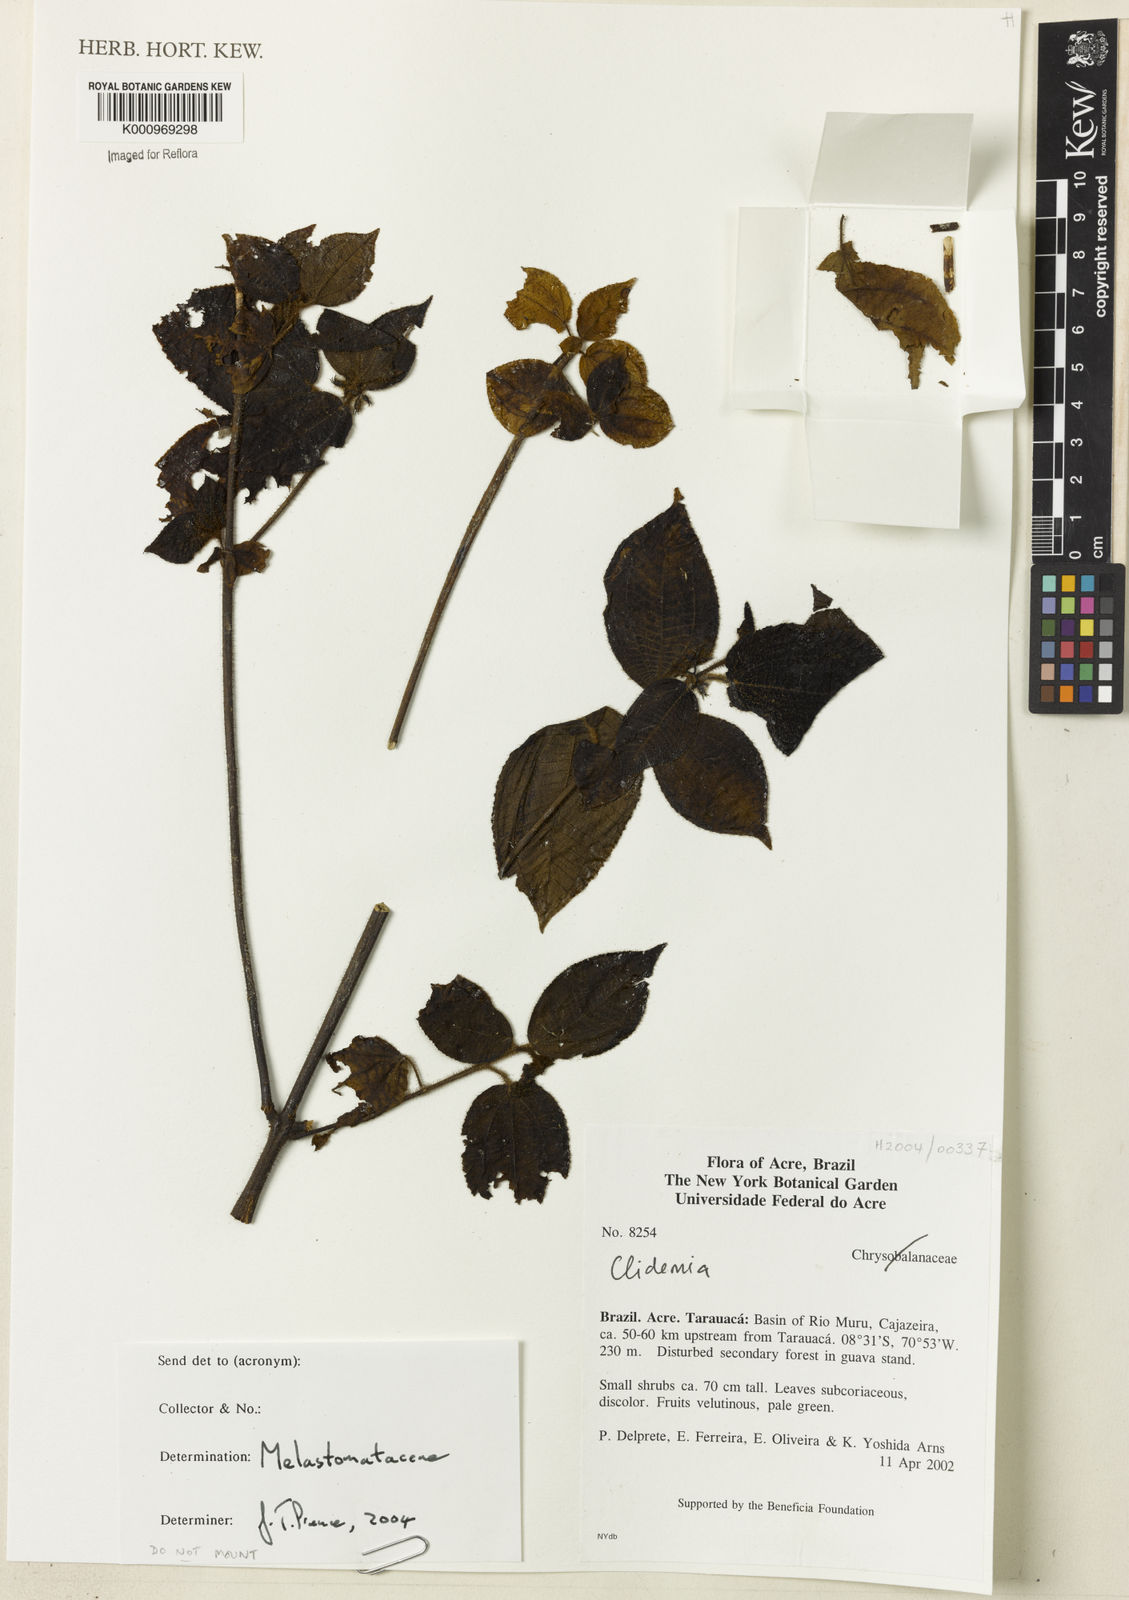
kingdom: Plantae
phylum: Tracheophyta
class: Magnoliopsida
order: Myrtales
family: Melastomataceae
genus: Miconia
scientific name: Miconia
